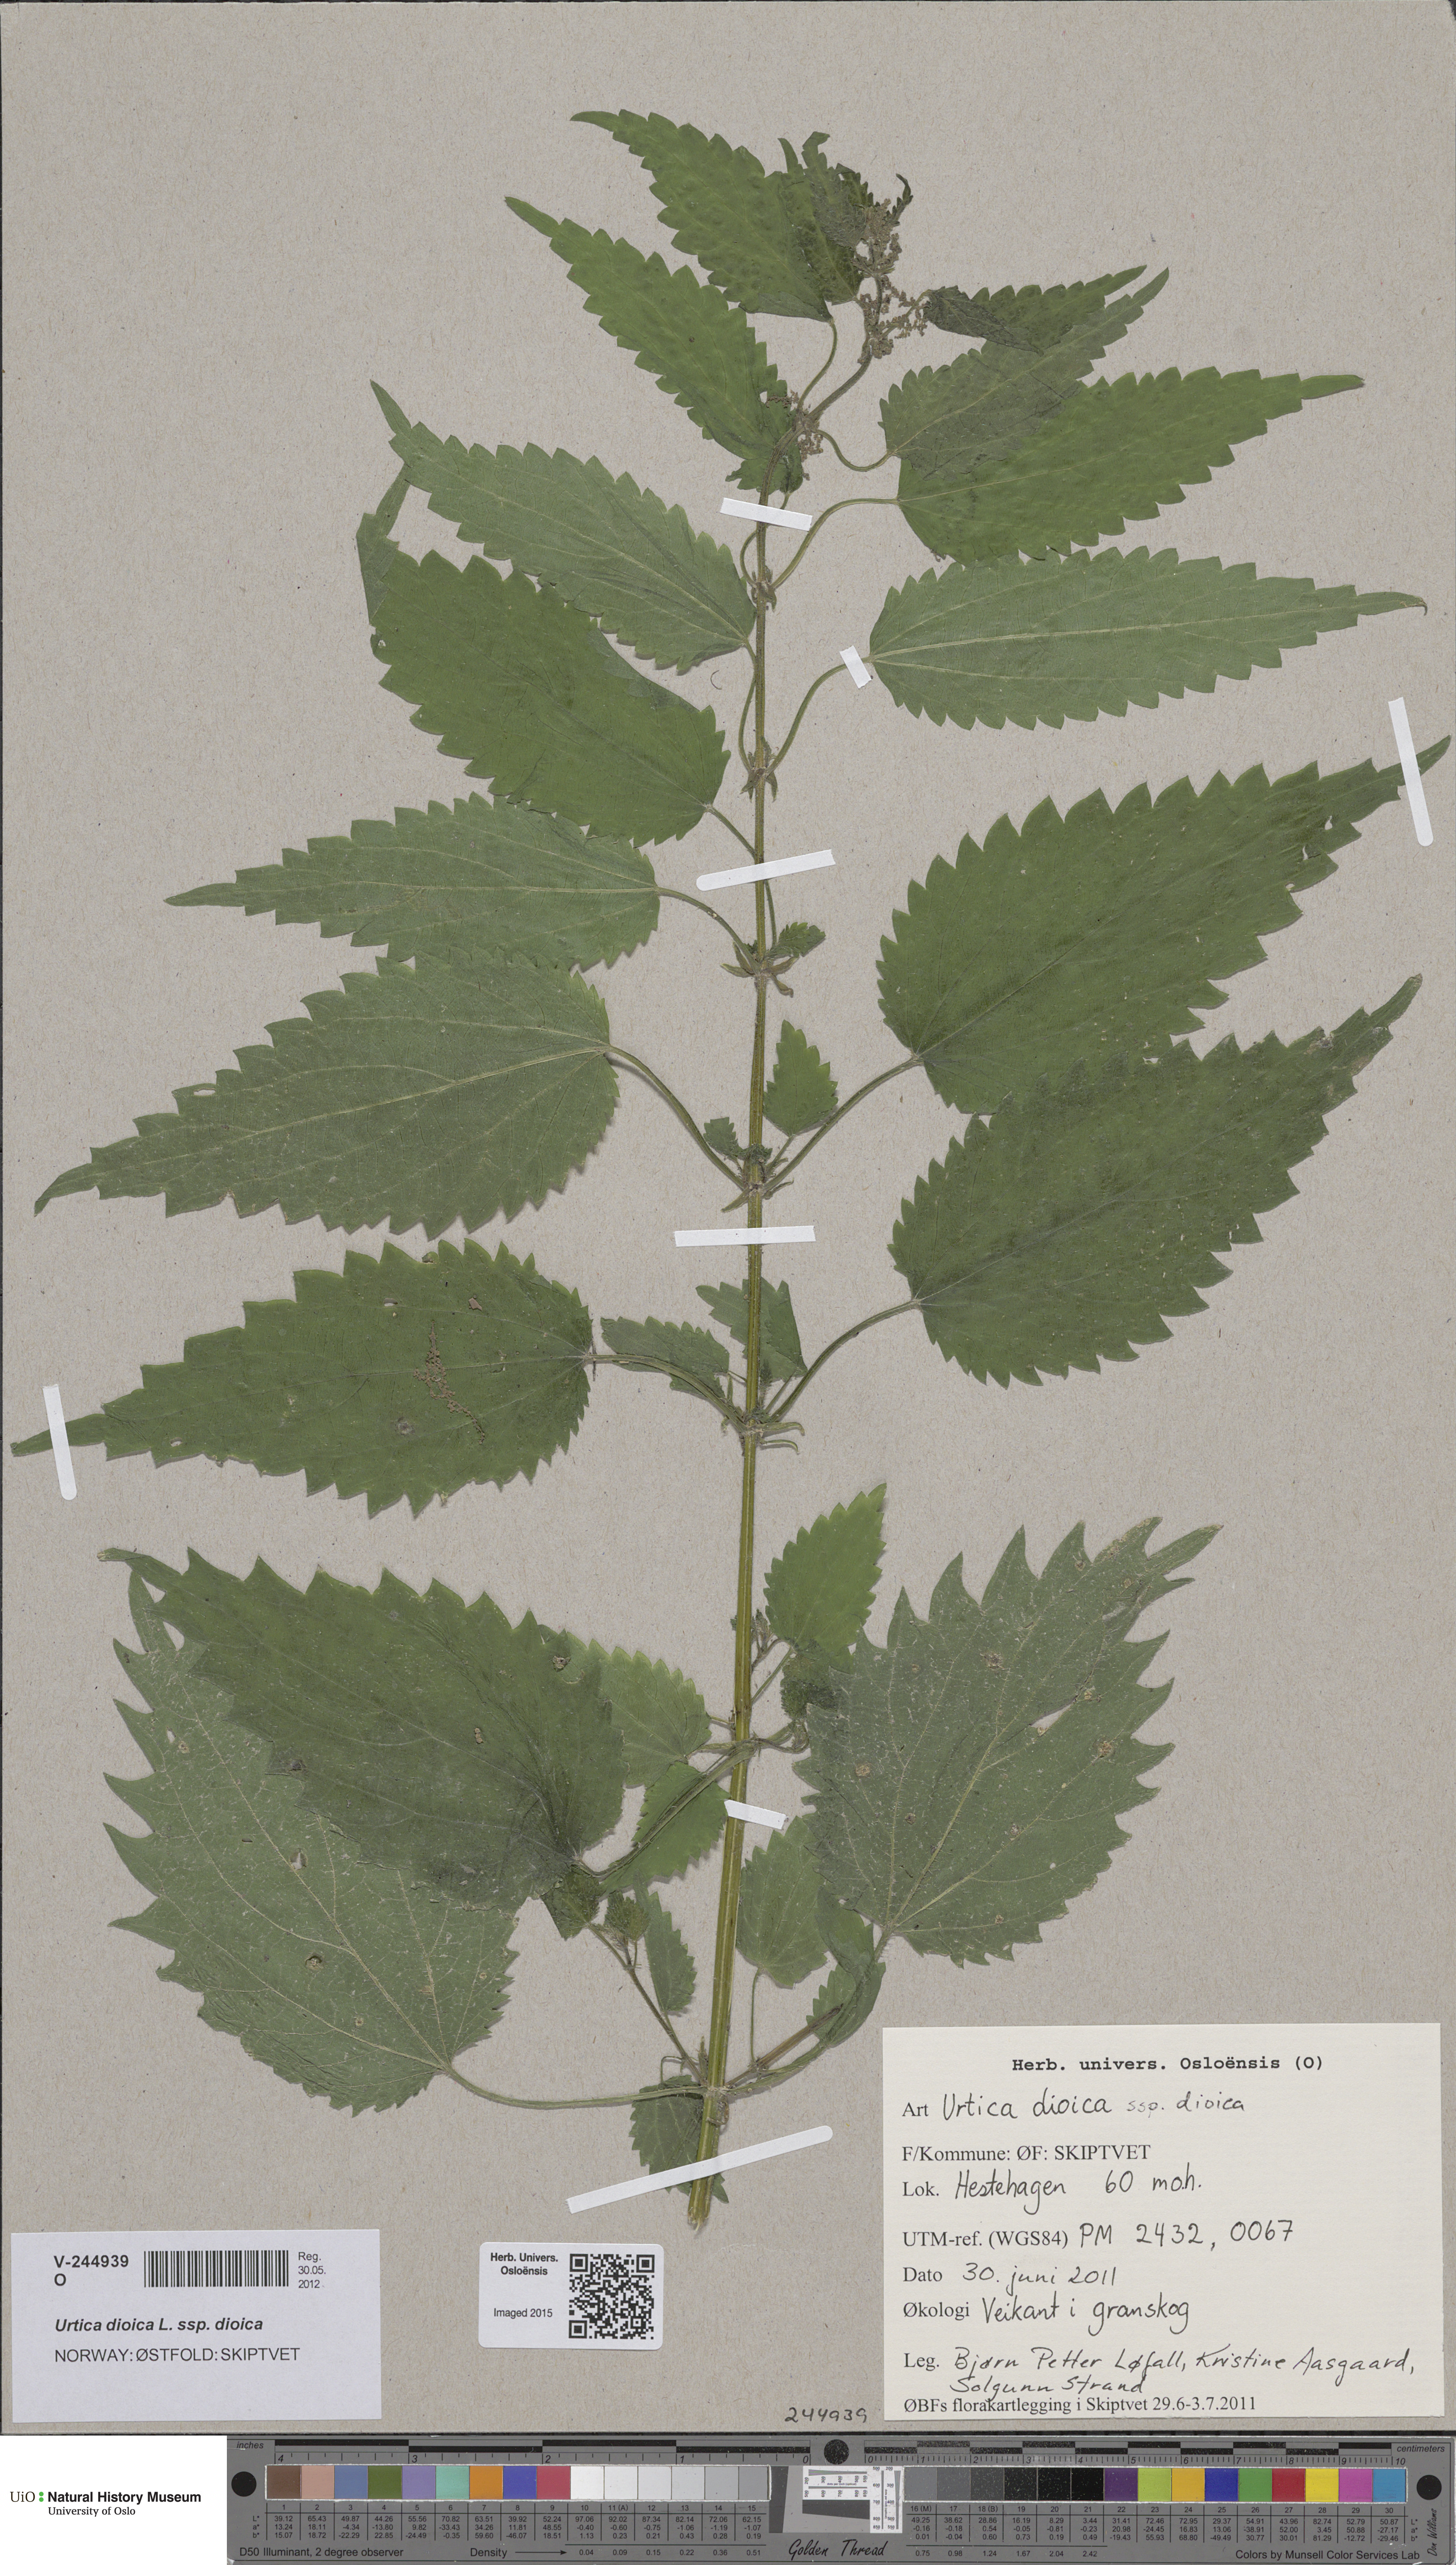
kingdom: Plantae
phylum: Tracheophyta
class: Magnoliopsida
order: Rosales
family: Urticaceae
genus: Urtica
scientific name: Urtica dioica
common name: Common nettle
